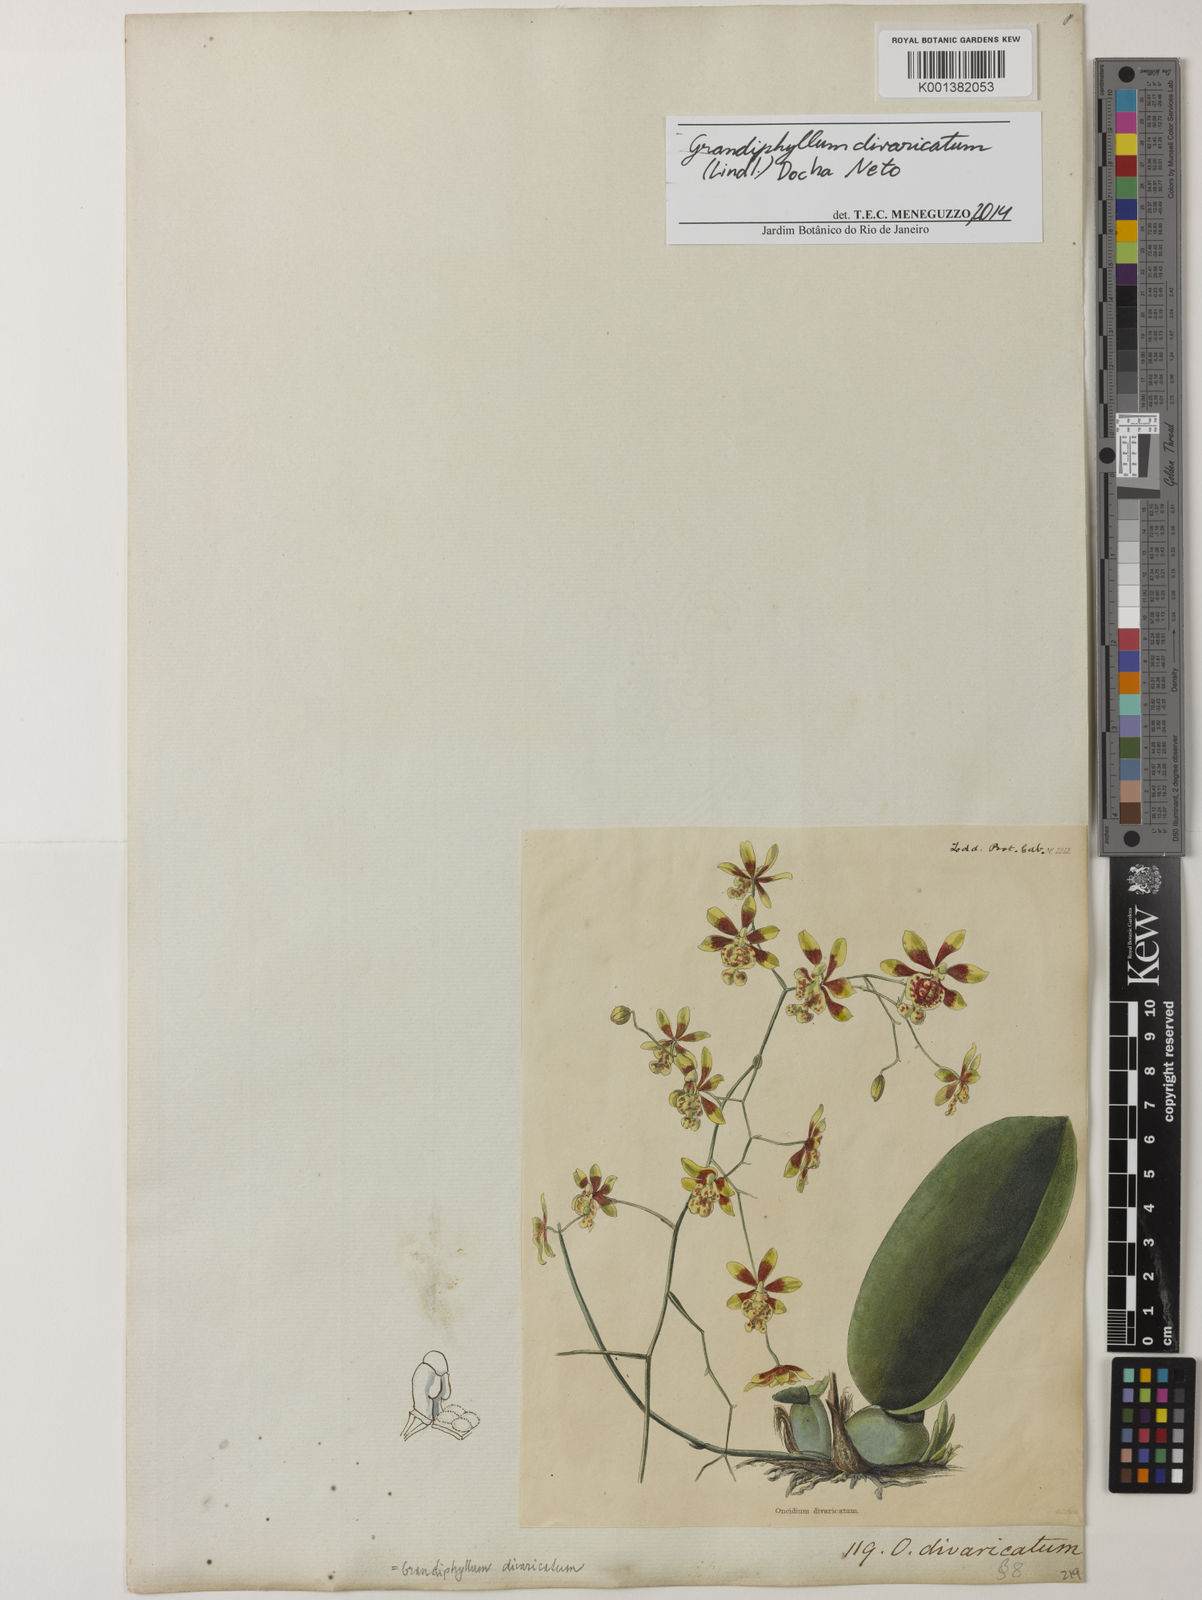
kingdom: Plantae
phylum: Tracheophyta
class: Liliopsida
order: Asparagales
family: Orchidaceae
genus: Grandiphyllum
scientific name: Grandiphyllum divaricatum
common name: Mule-ear orchid
